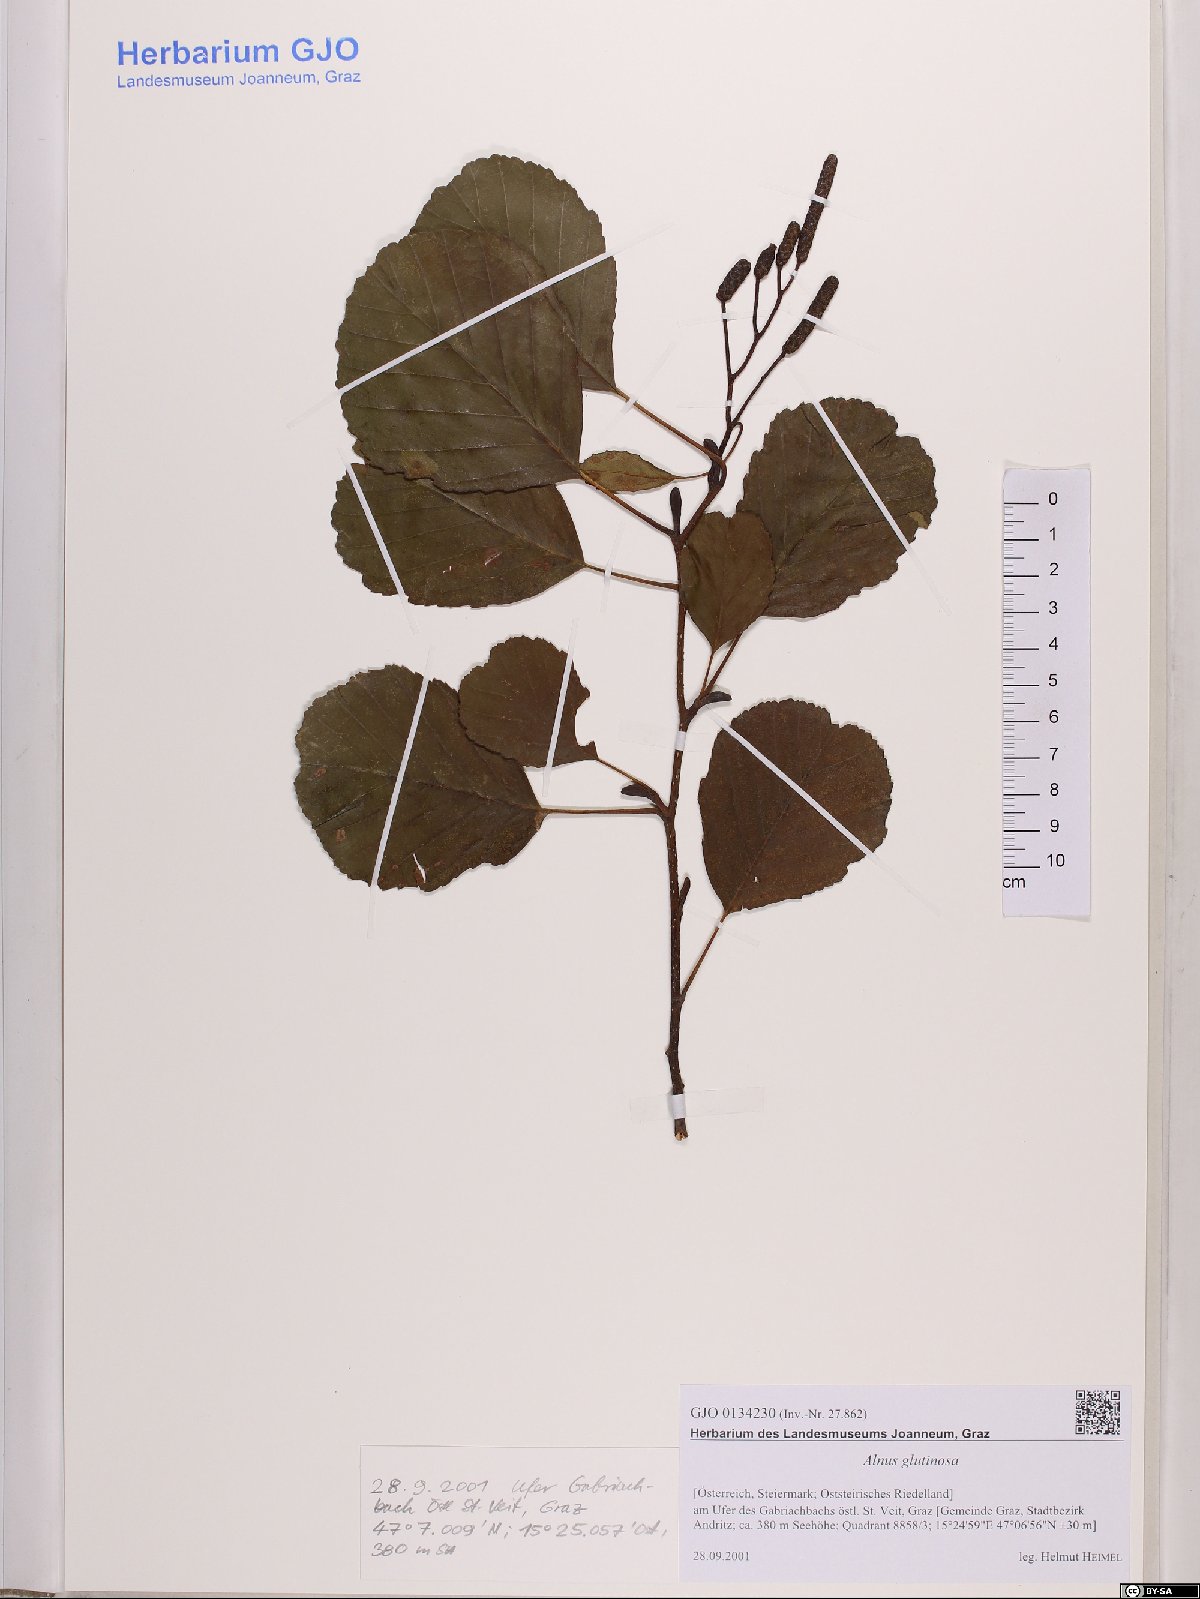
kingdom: Plantae
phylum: Tracheophyta
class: Magnoliopsida
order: Fagales
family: Betulaceae
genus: Alnus
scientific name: Alnus glutinosa
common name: Black alder
